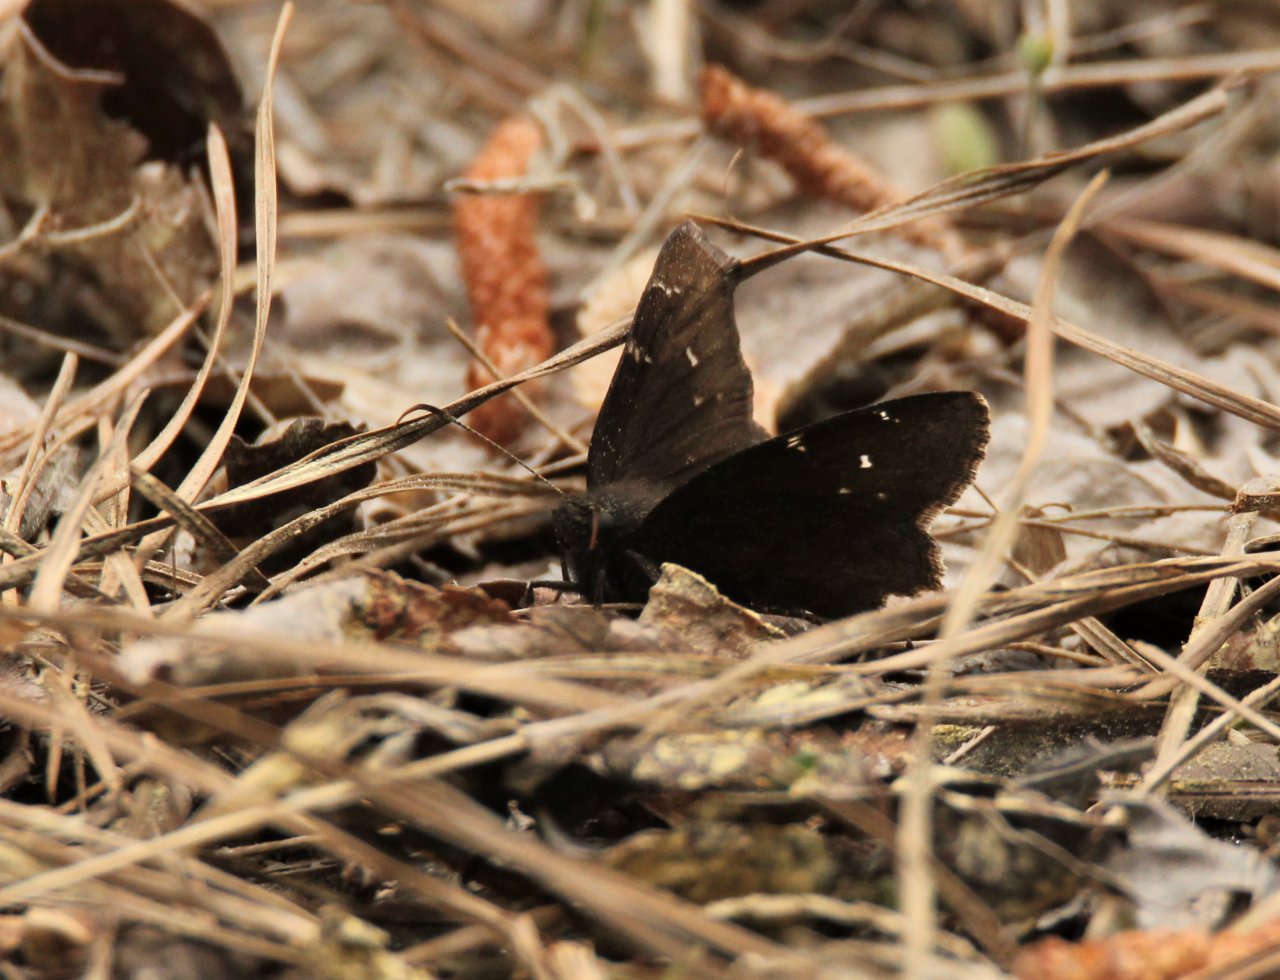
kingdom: Animalia
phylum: Arthropoda
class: Insecta
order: Lepidoptera
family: Hesperiidae
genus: Autochton
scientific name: Autochton
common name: Northern Cloudywing
